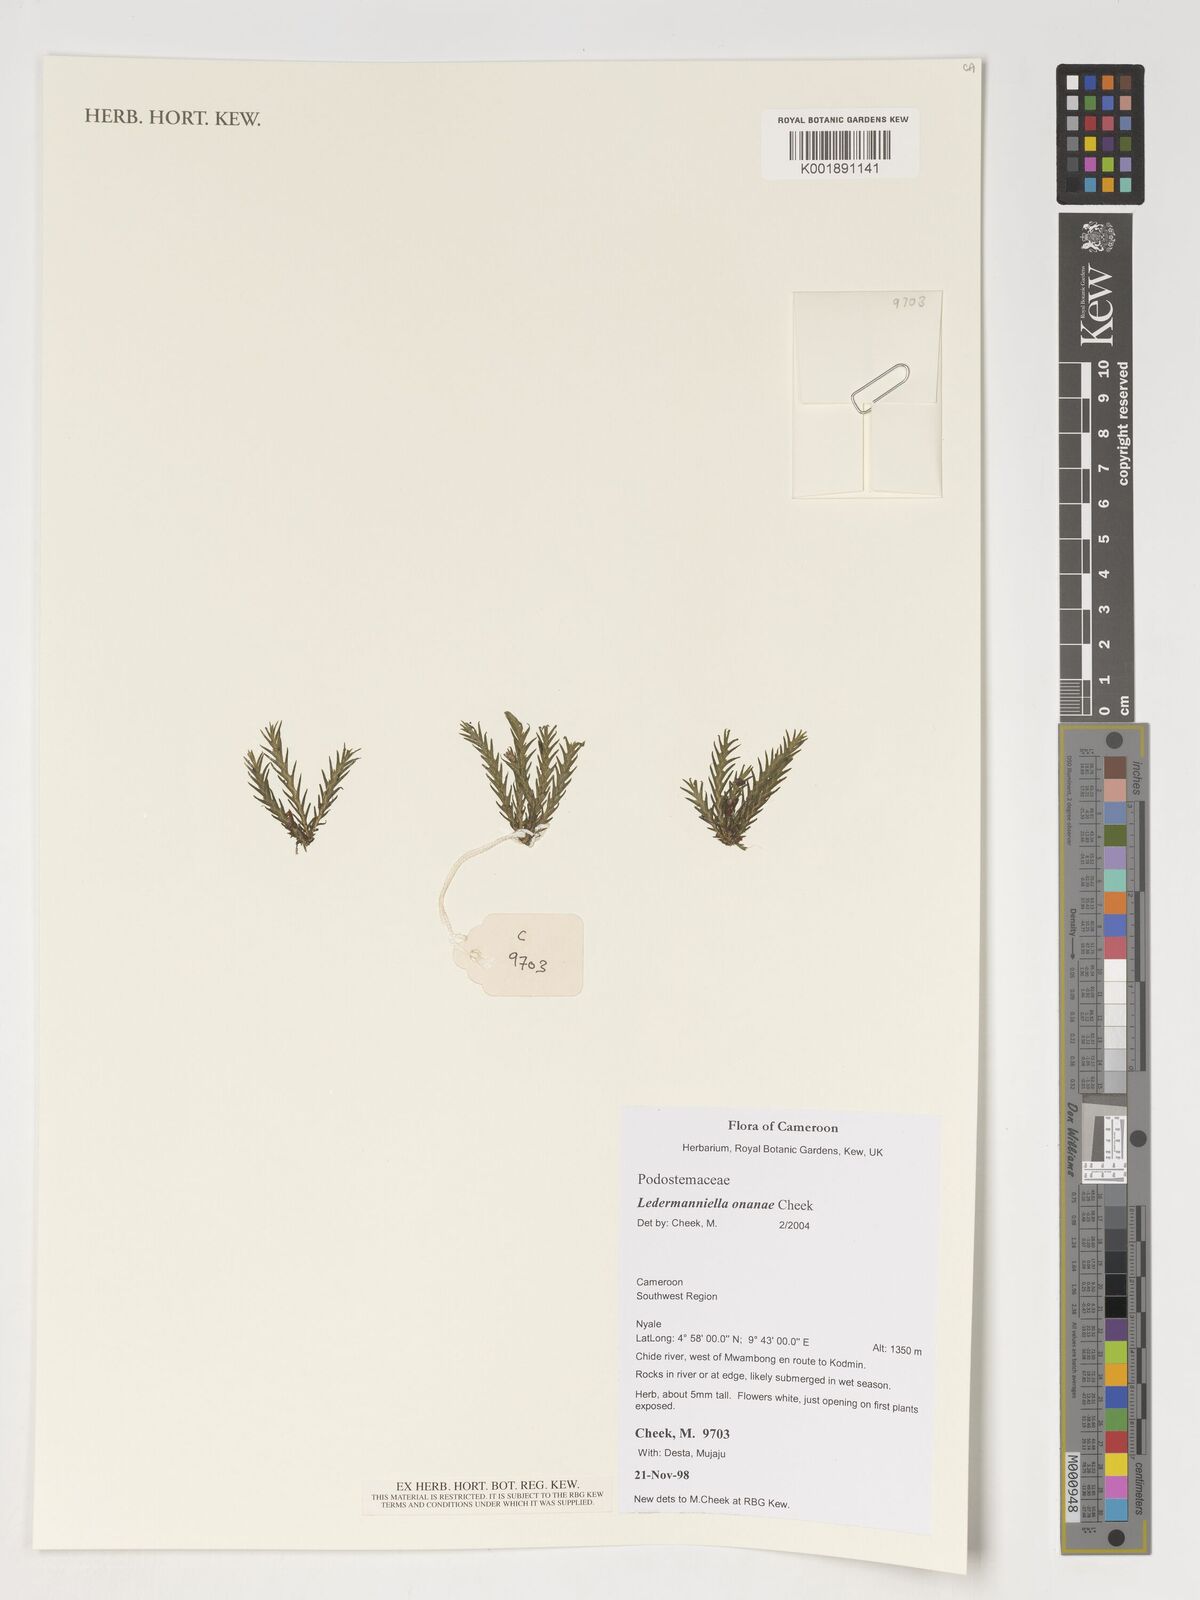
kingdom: Plantae
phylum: Tracheophyta
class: Magnoliopsida
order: Malpighiales
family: Podostemaceae
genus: Ledermanniella
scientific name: Ledermanniella onanae
